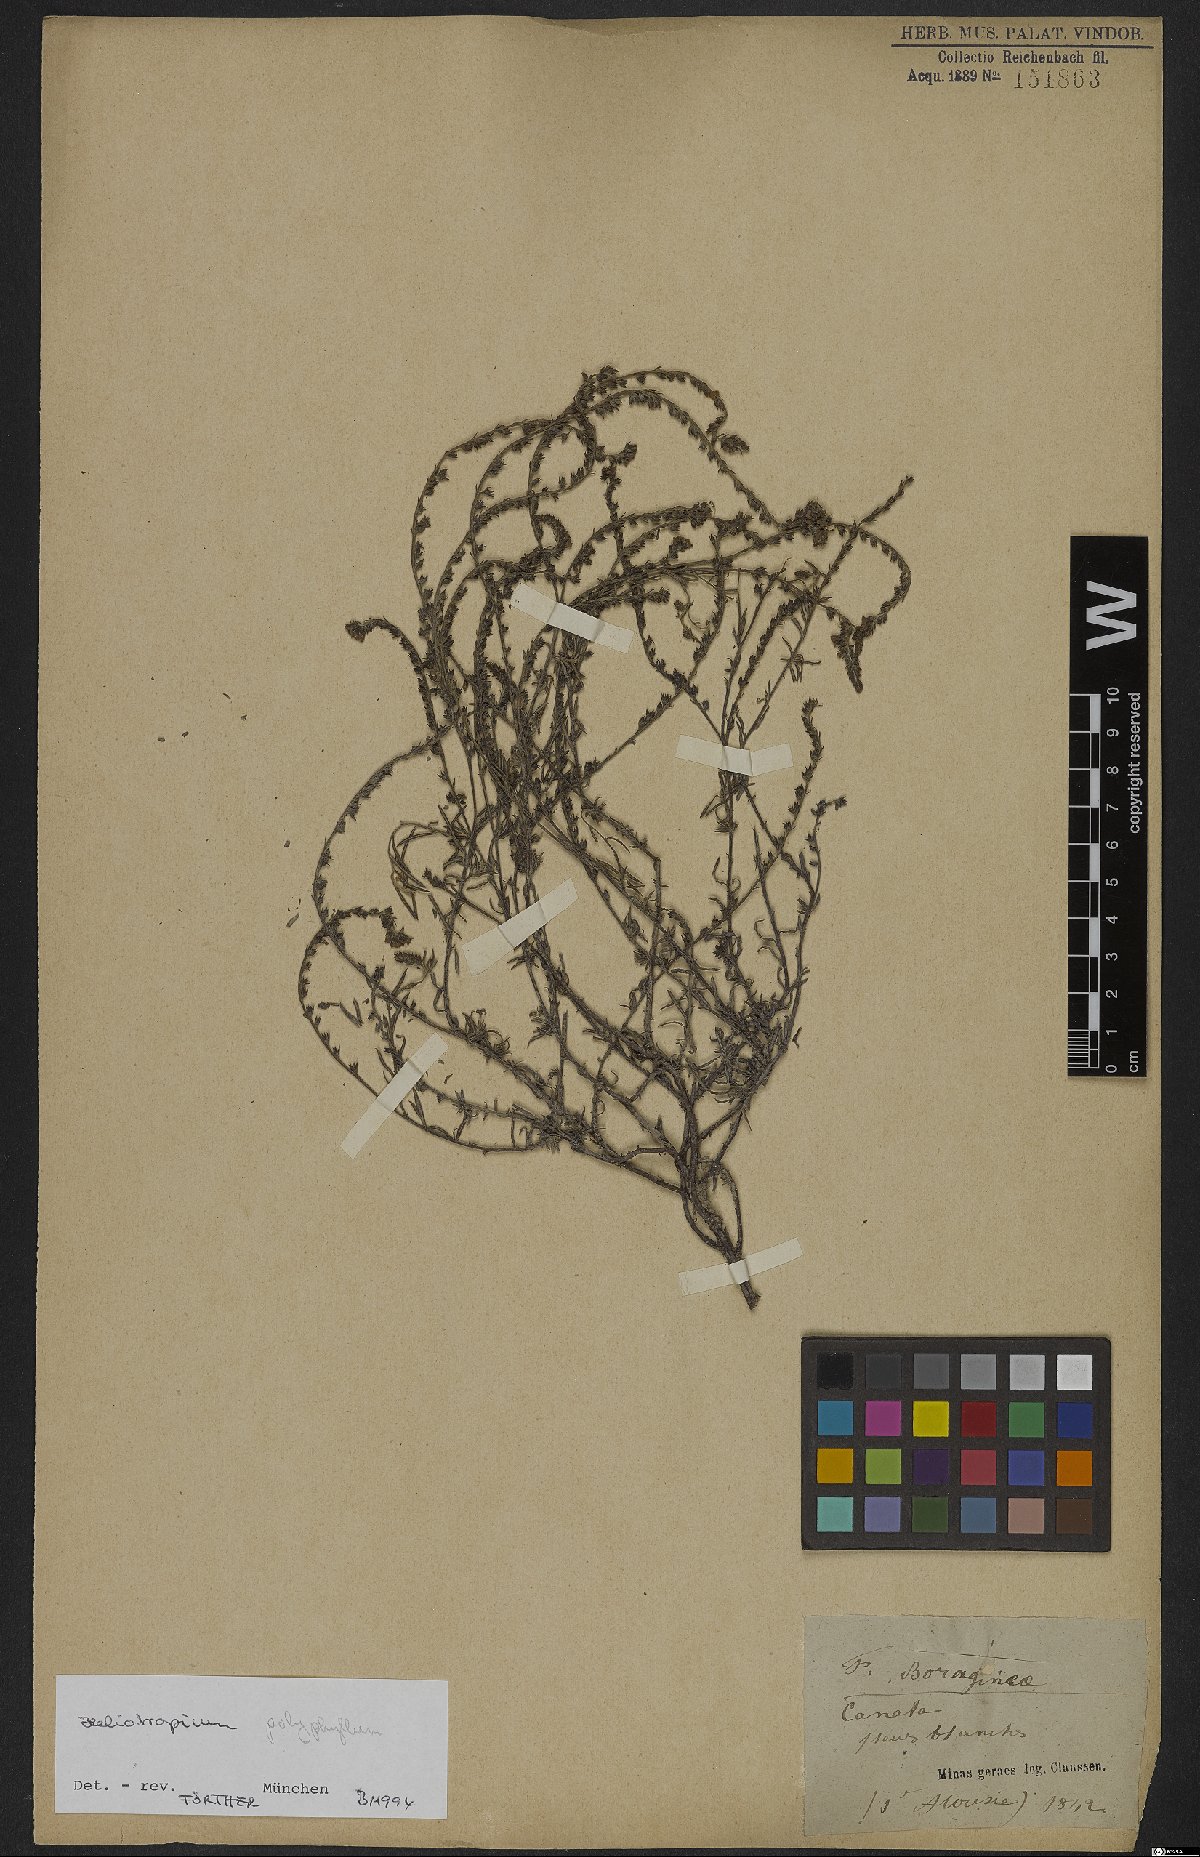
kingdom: Plantae
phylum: Tracheophyta
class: Magnoliopsida
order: Boraginales
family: Heliotropiaceae
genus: Heliotropium
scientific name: Heliotropium
